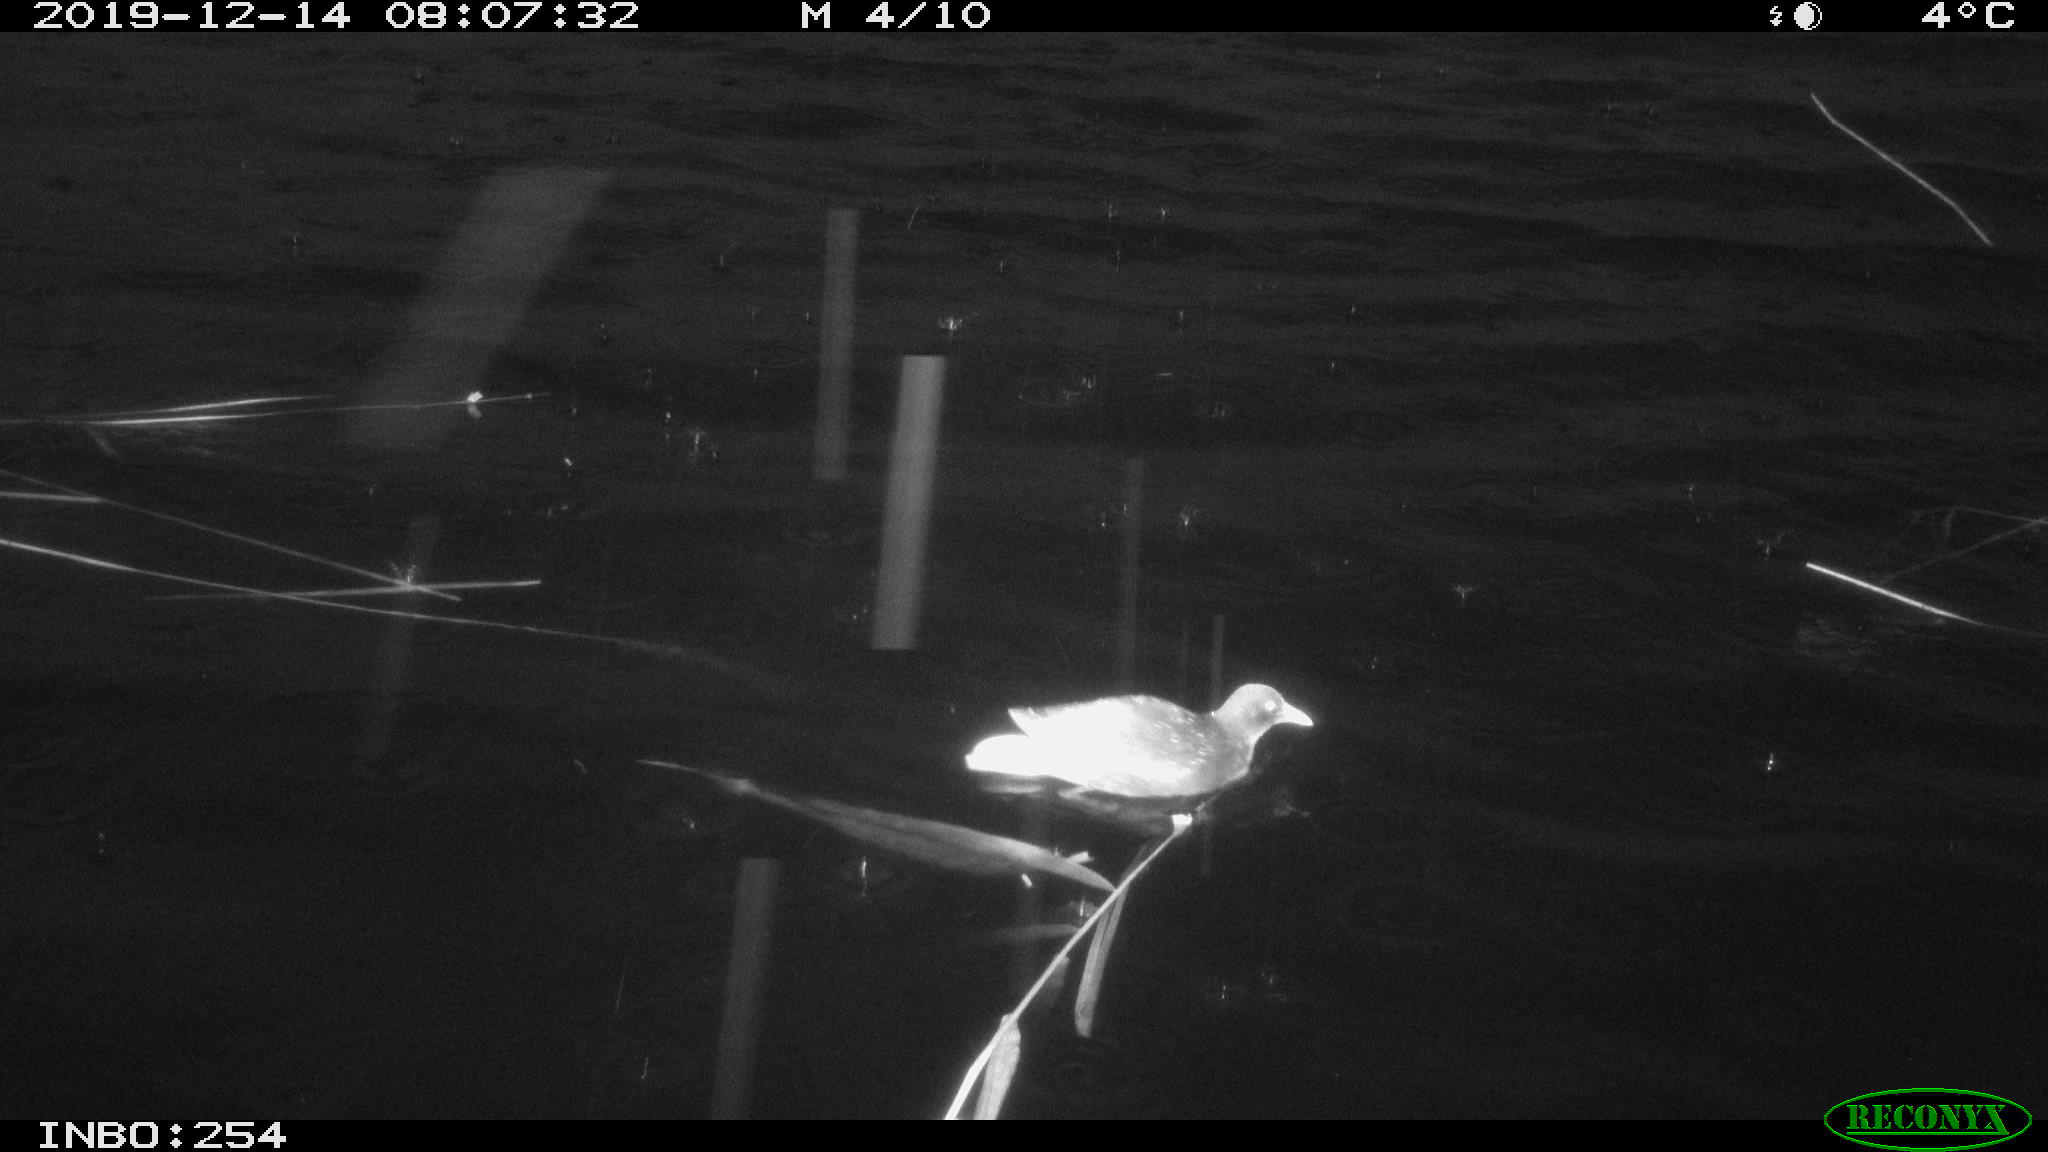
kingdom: Animalia
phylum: Chordata
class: Aves
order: Gruiformes
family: Rallidae
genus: Gallinula
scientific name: Gallinula chloropus
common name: Common moorhen
